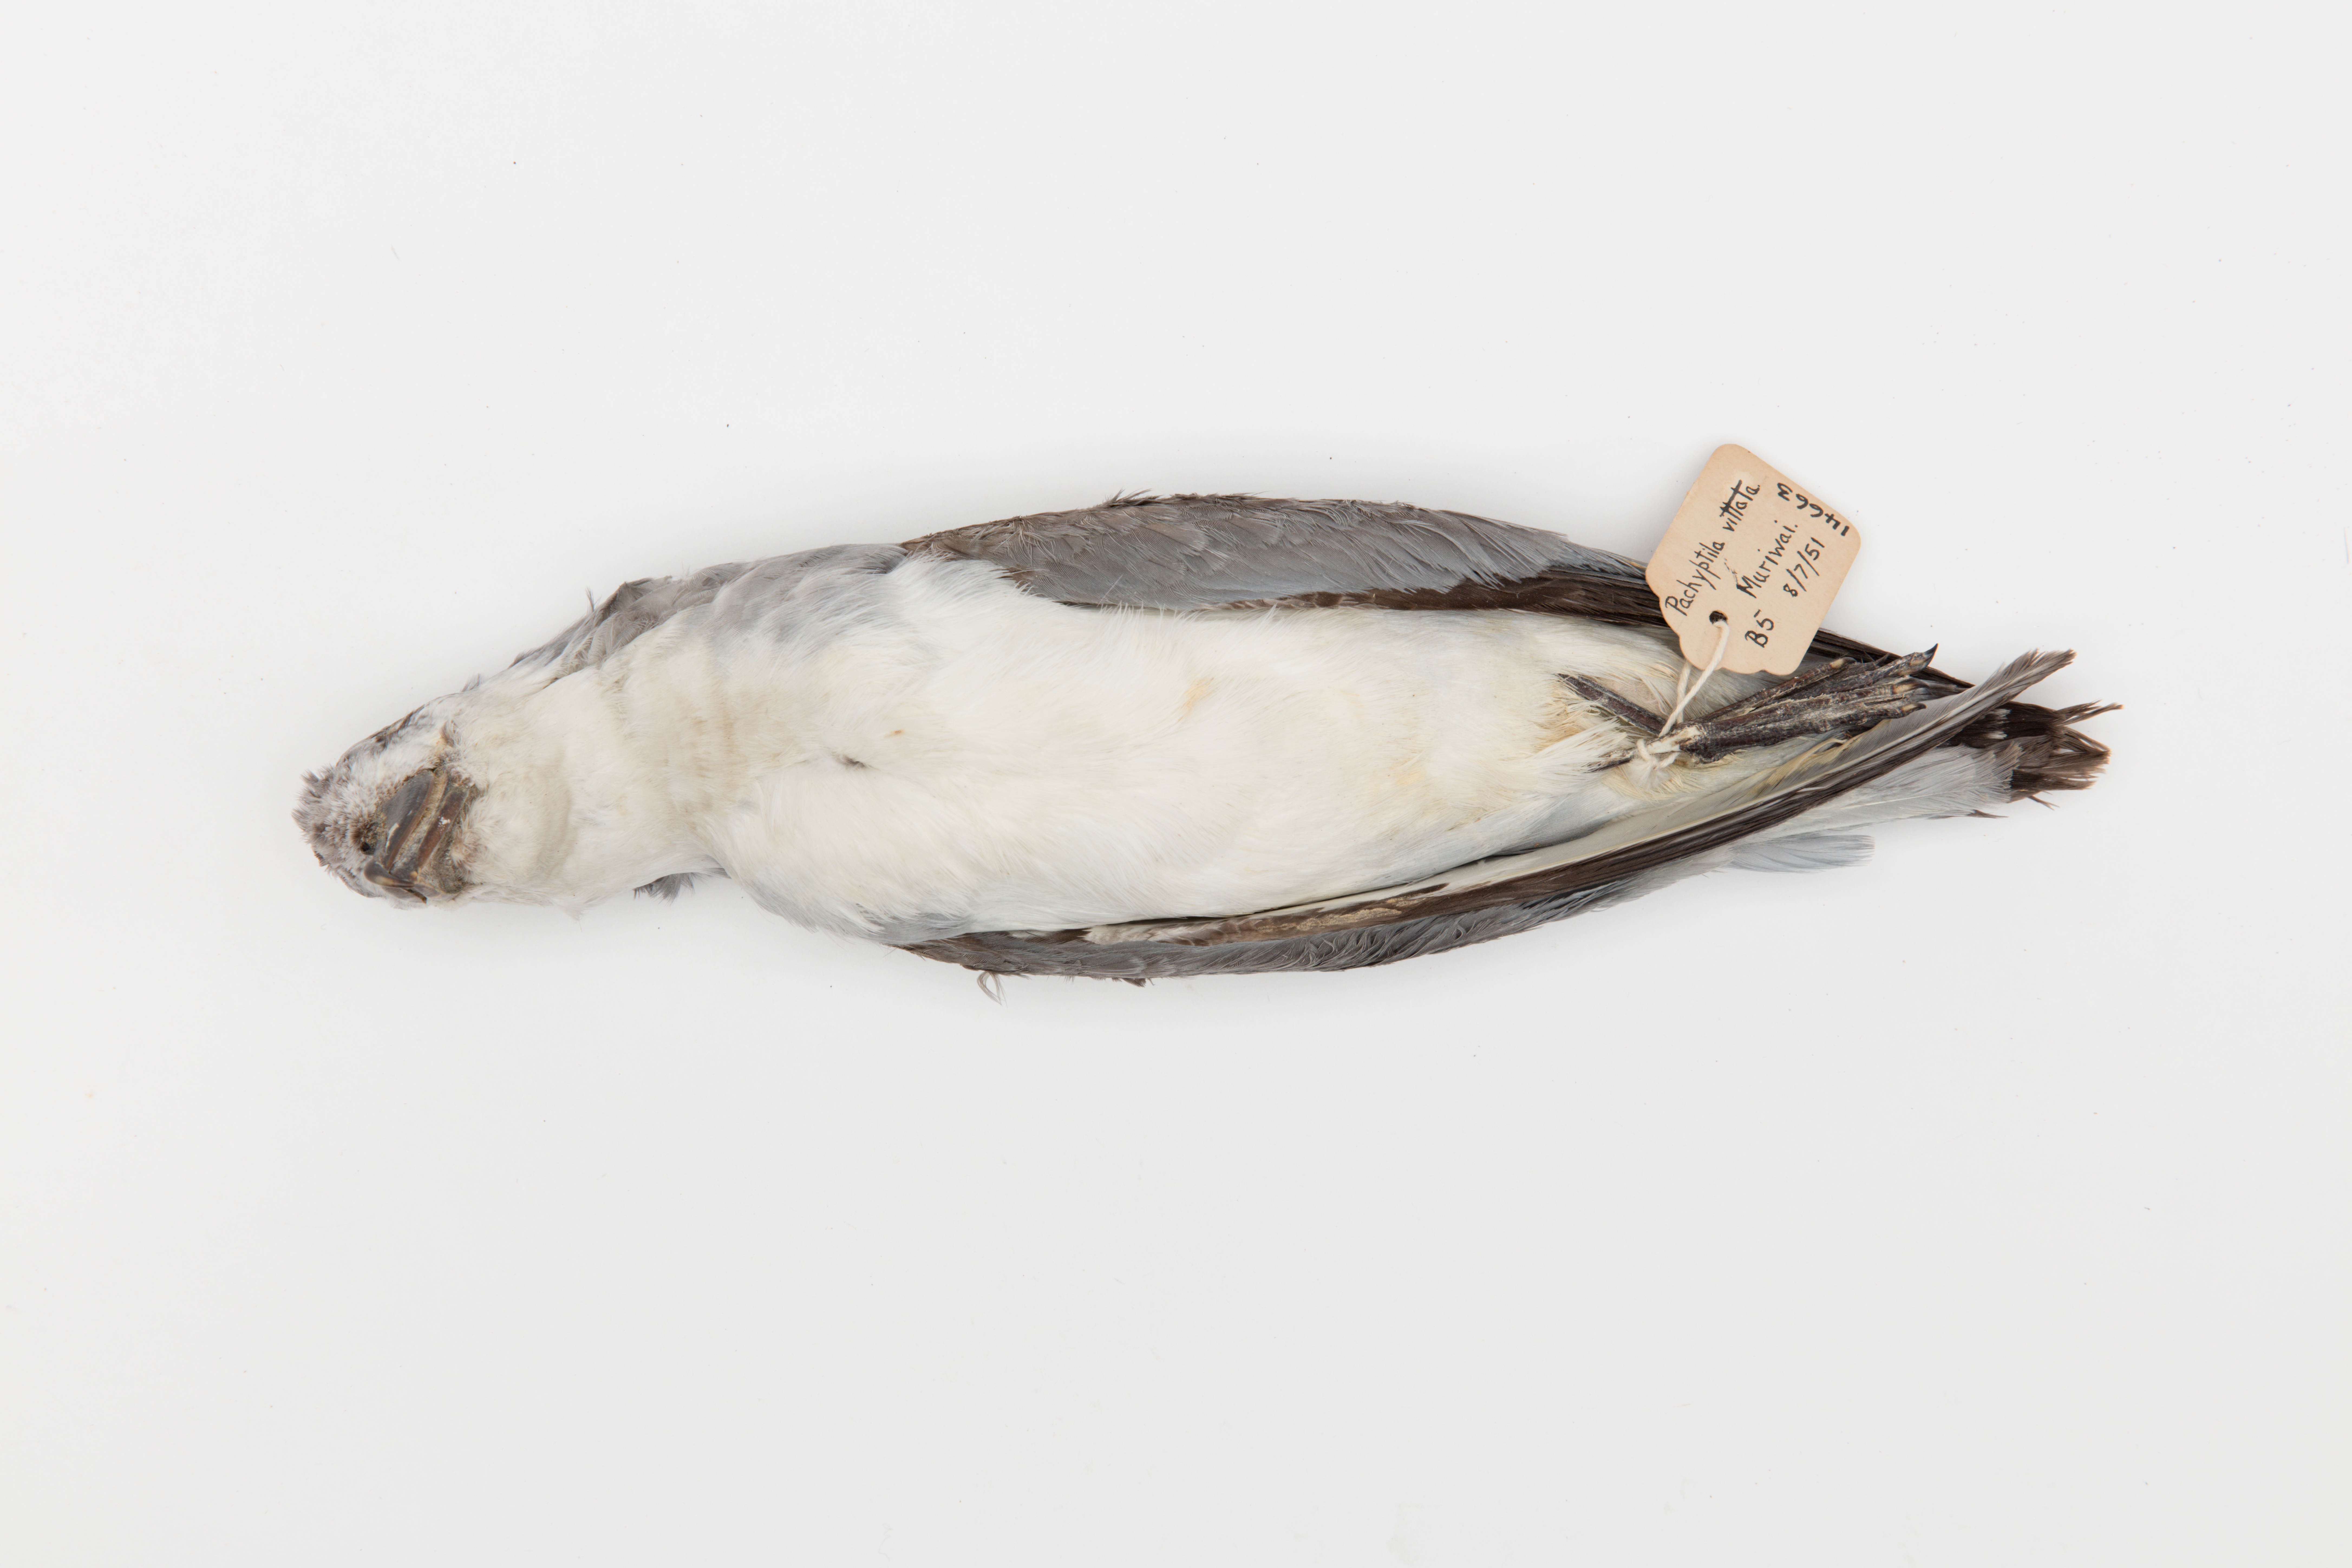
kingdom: Animalia
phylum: Chordata
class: Aves
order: Procellariiformes
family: Procellariidae
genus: Pachyptila
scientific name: Pachyptila vittata
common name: Broad-billed prion
